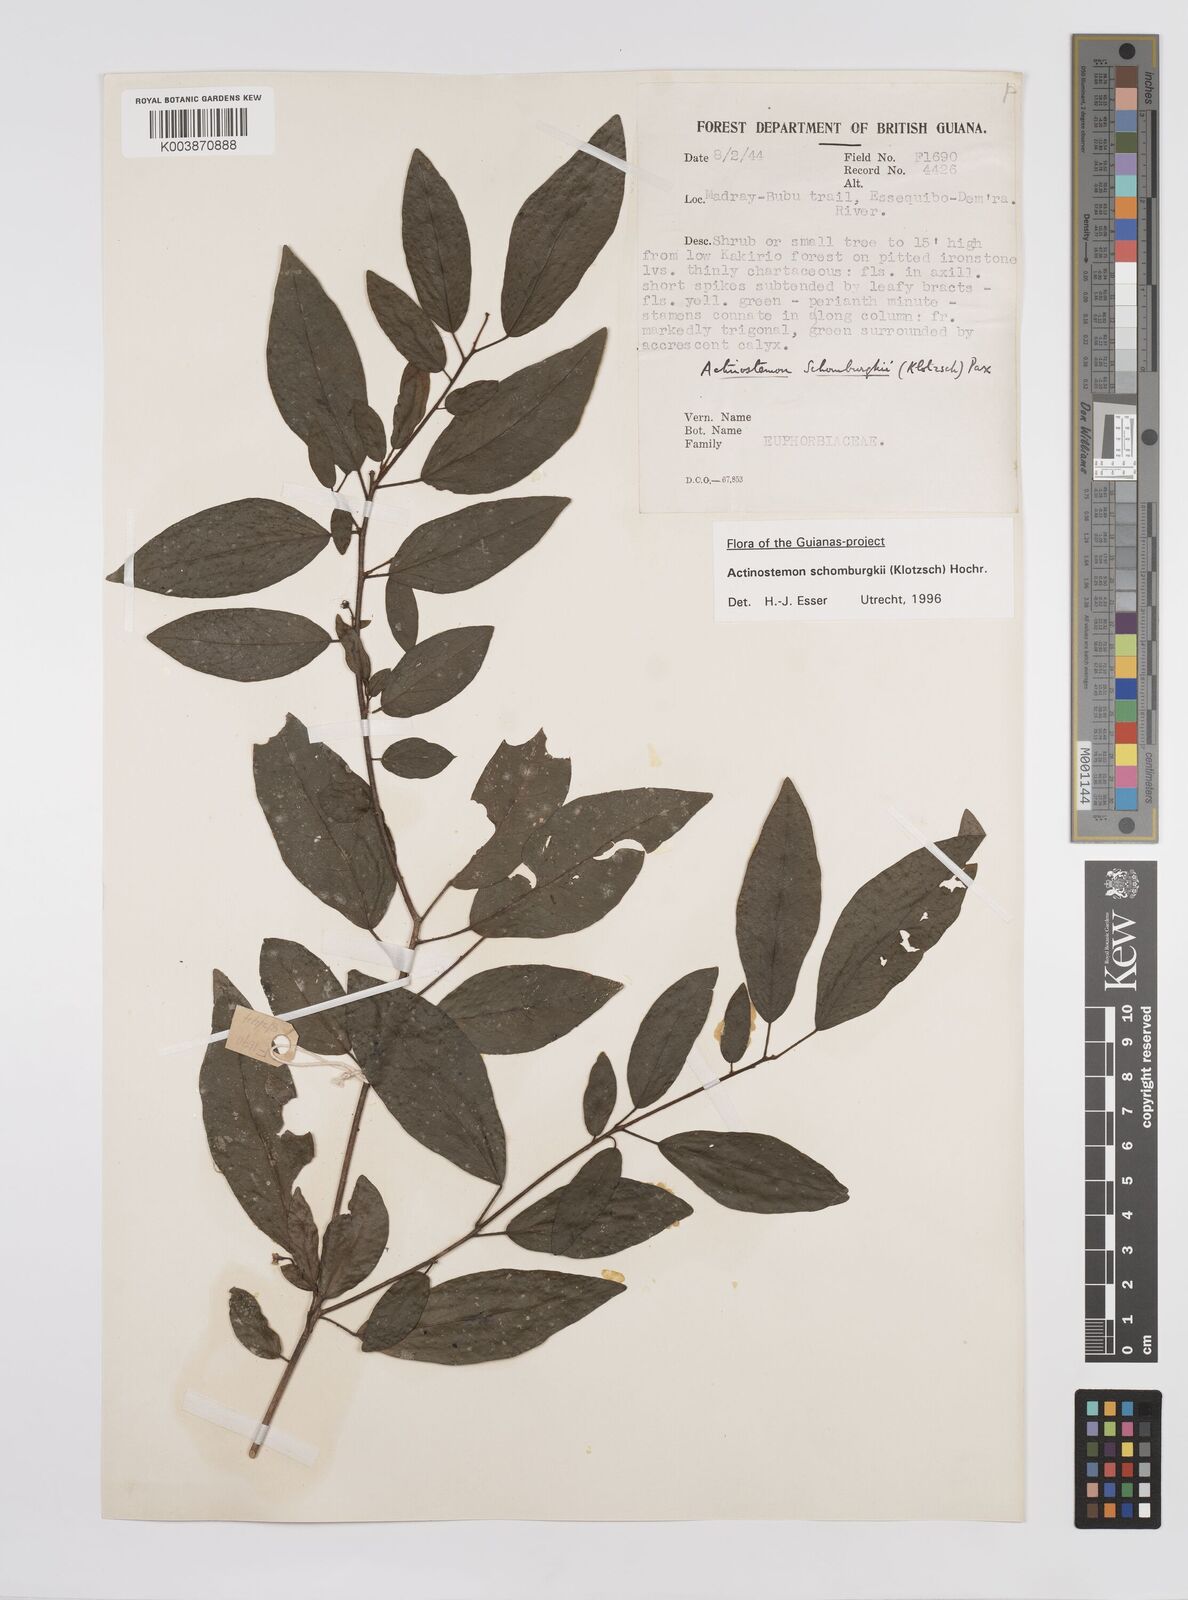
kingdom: Plantae
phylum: Tracheophyta
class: Magnoliopsida
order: Malpighiales
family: Euphorbiaceae
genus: Actinostemon
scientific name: Actinostemon schomburgkii
